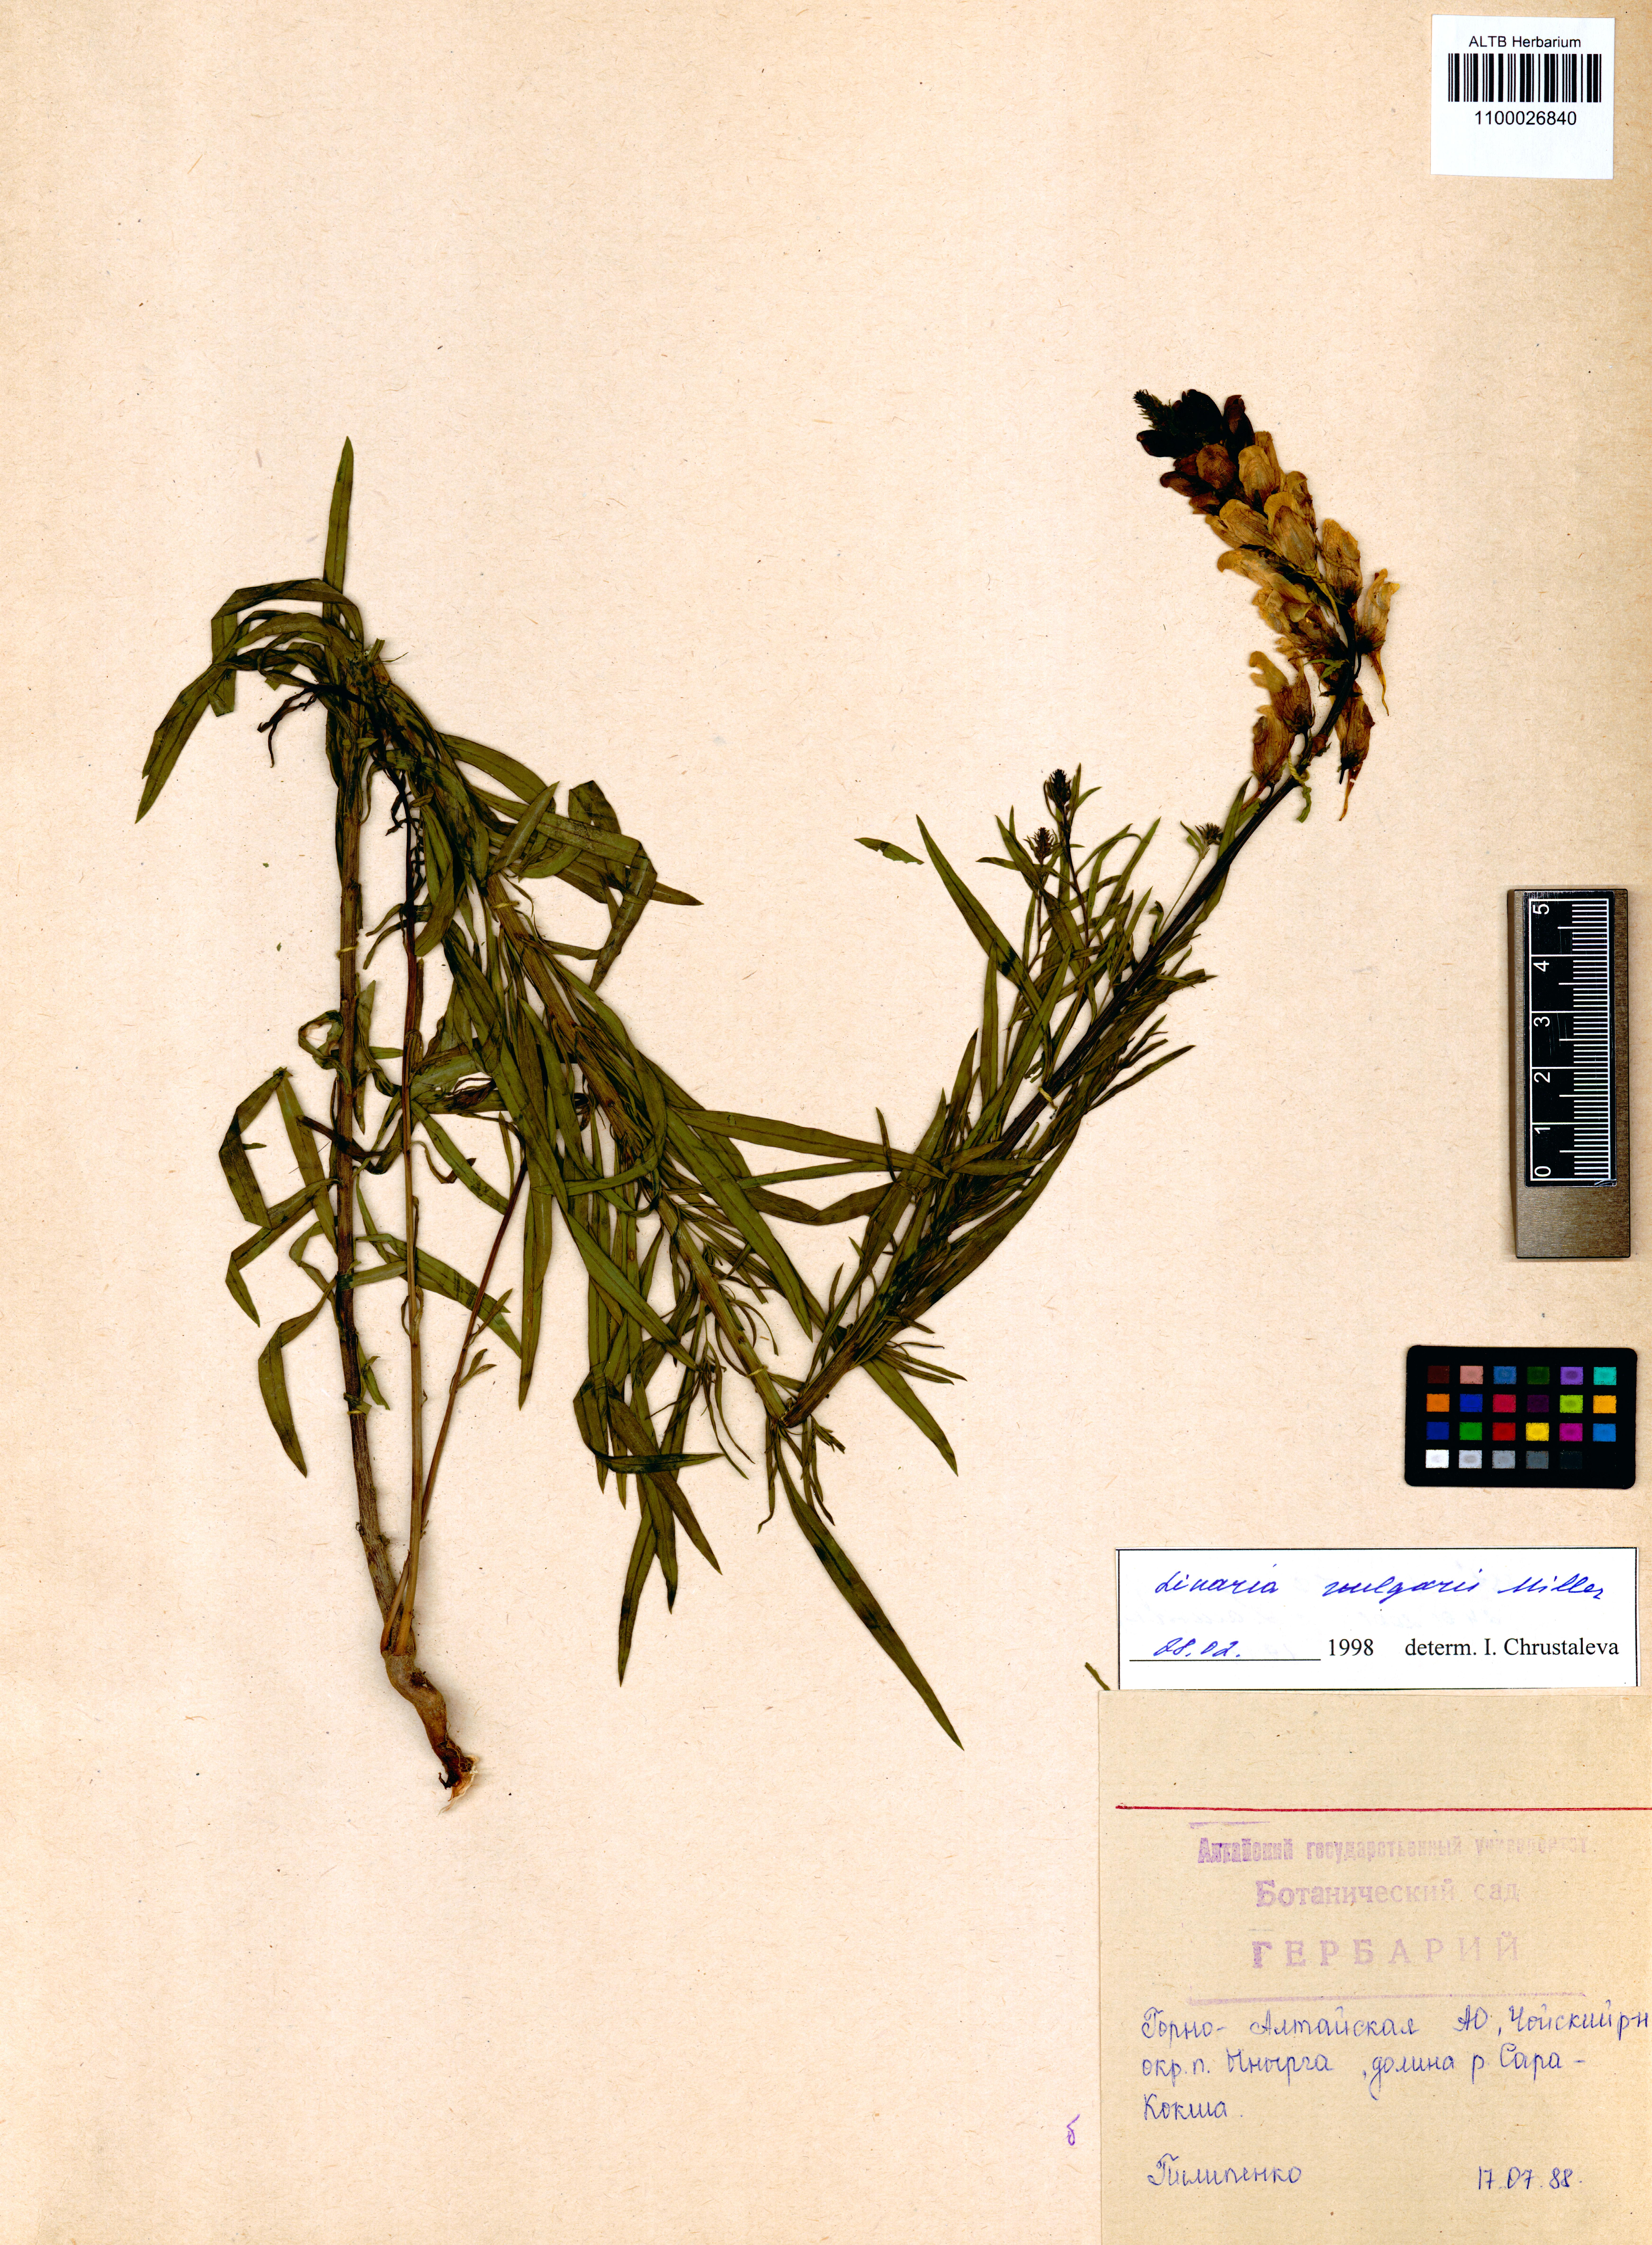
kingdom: Plantae
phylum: Tracheophyta
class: Magnoliopsida
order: Lamiales
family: Plantaginaceae
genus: Linaria
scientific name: Linaria vulgaris
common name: Butter and eggs
